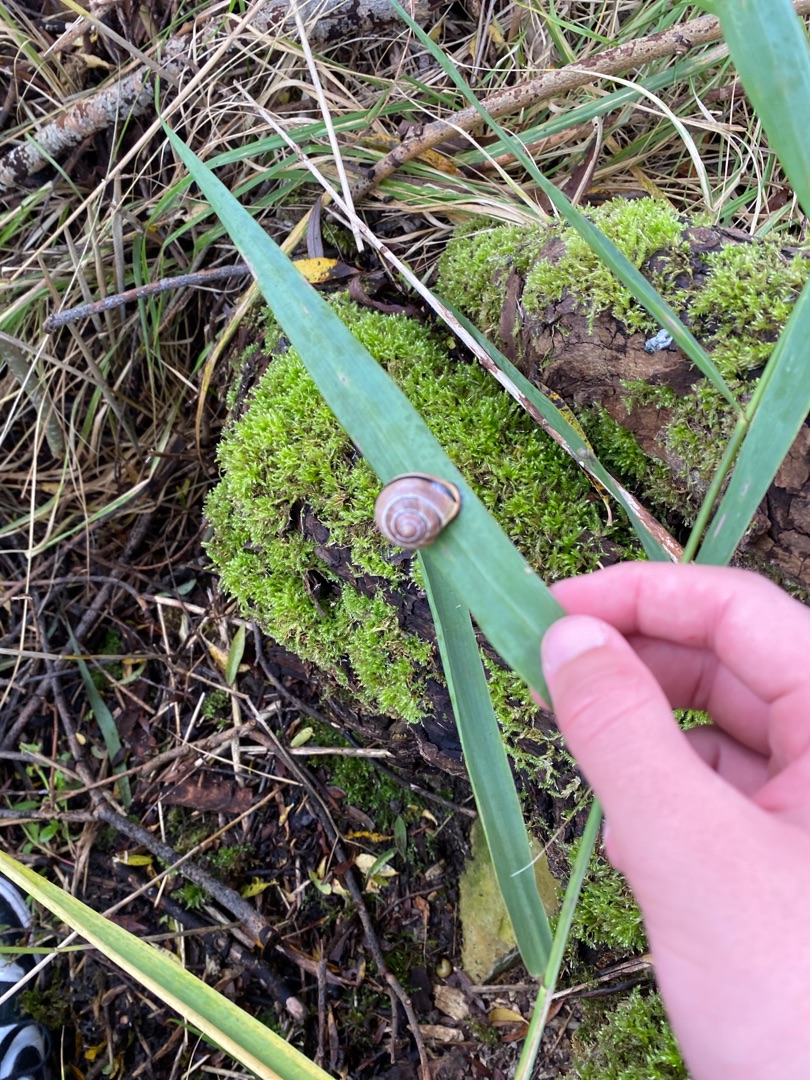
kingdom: Animalia
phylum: Mollusca
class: Gastropoda
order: Stylommatophora
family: Helicidae
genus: Cepaea
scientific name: Cepaea nemoralis
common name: Lundsnegl
